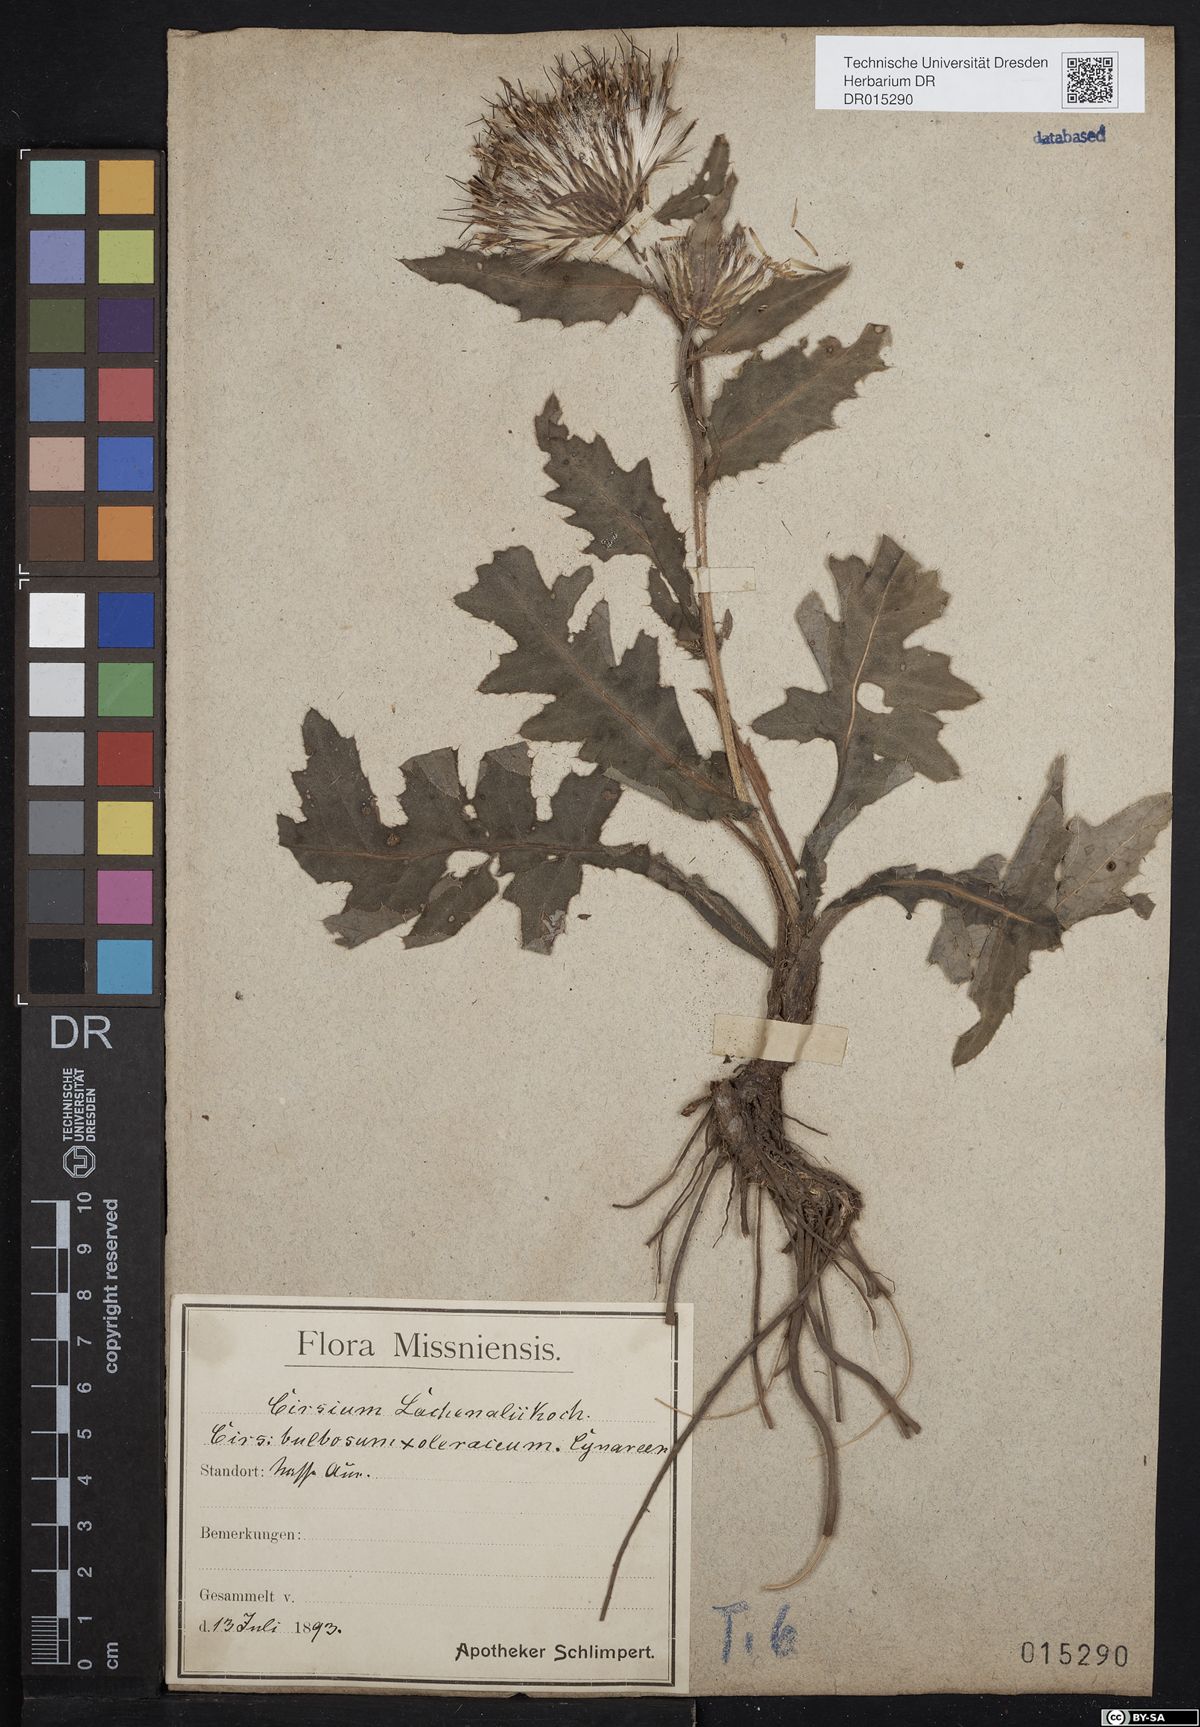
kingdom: Plantae
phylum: Tracheophyta
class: Magnoliopsida
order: Asterales
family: Asteraceae
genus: Cirsium
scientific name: Cirsium lachenalii
